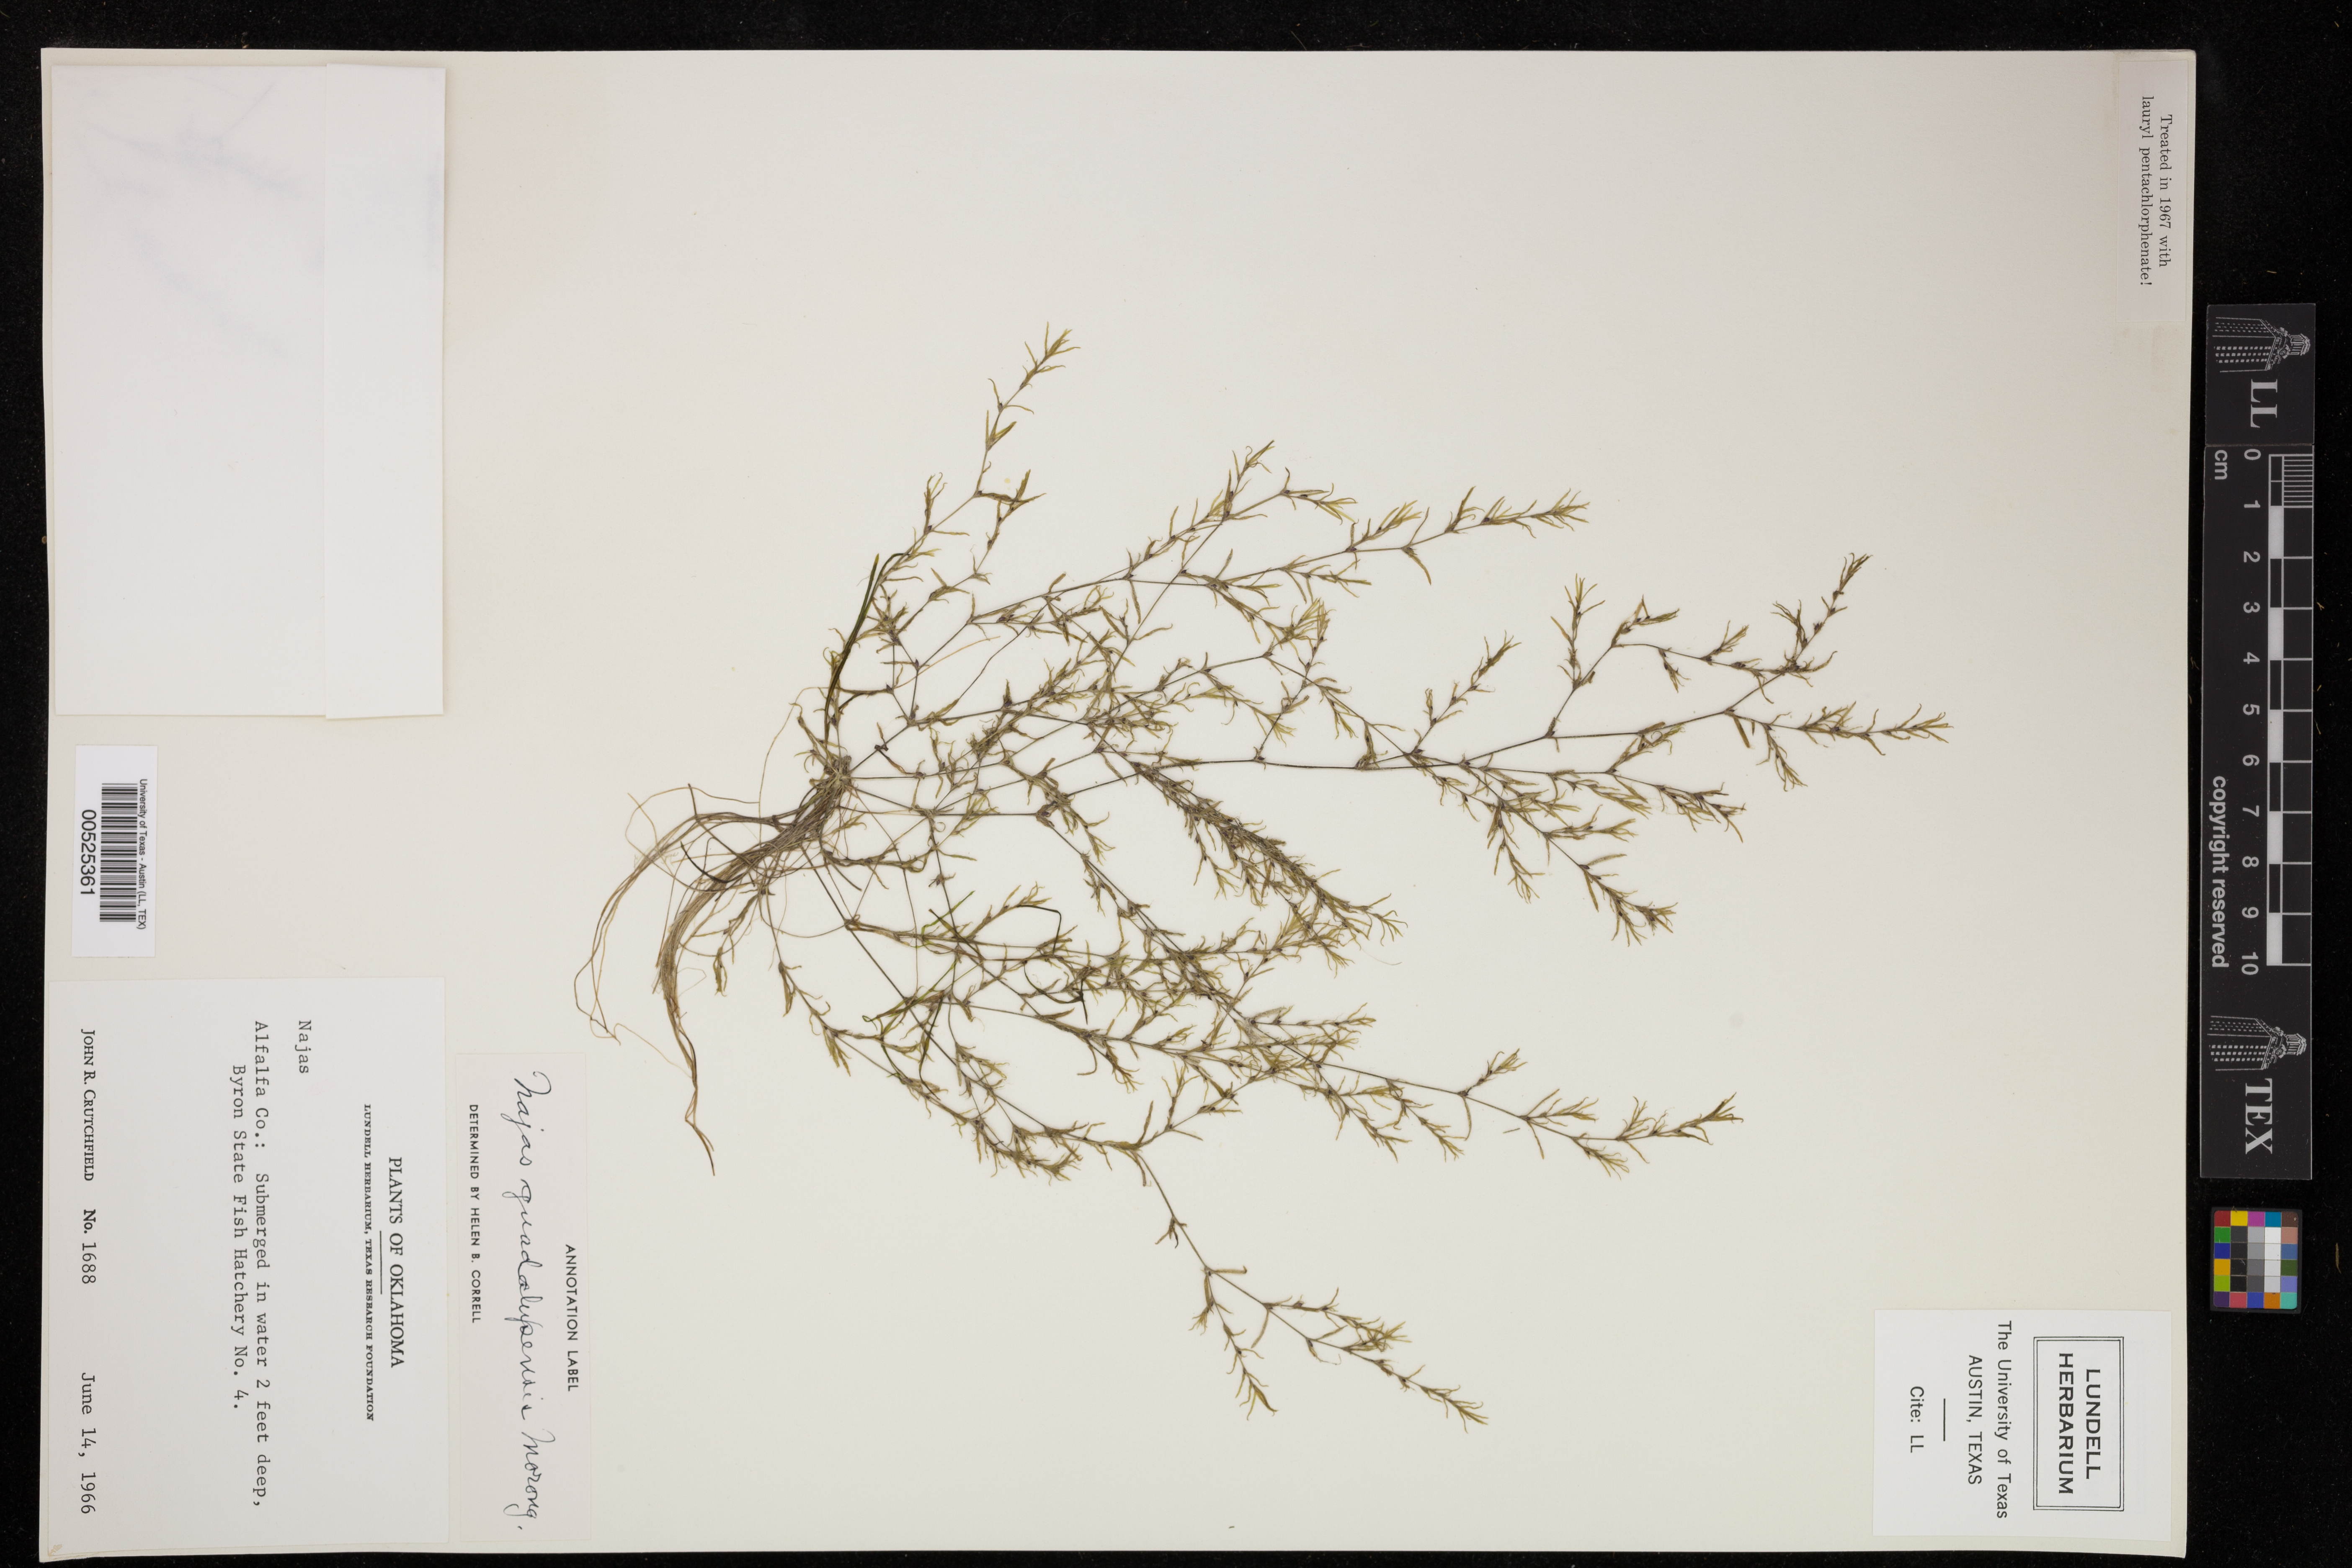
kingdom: Plantae
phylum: Tracheophyta
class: Liliopsida
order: Alismatales
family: Hydrocharitaceae
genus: Najas
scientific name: Najas guadalupensis
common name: Southern naiad
